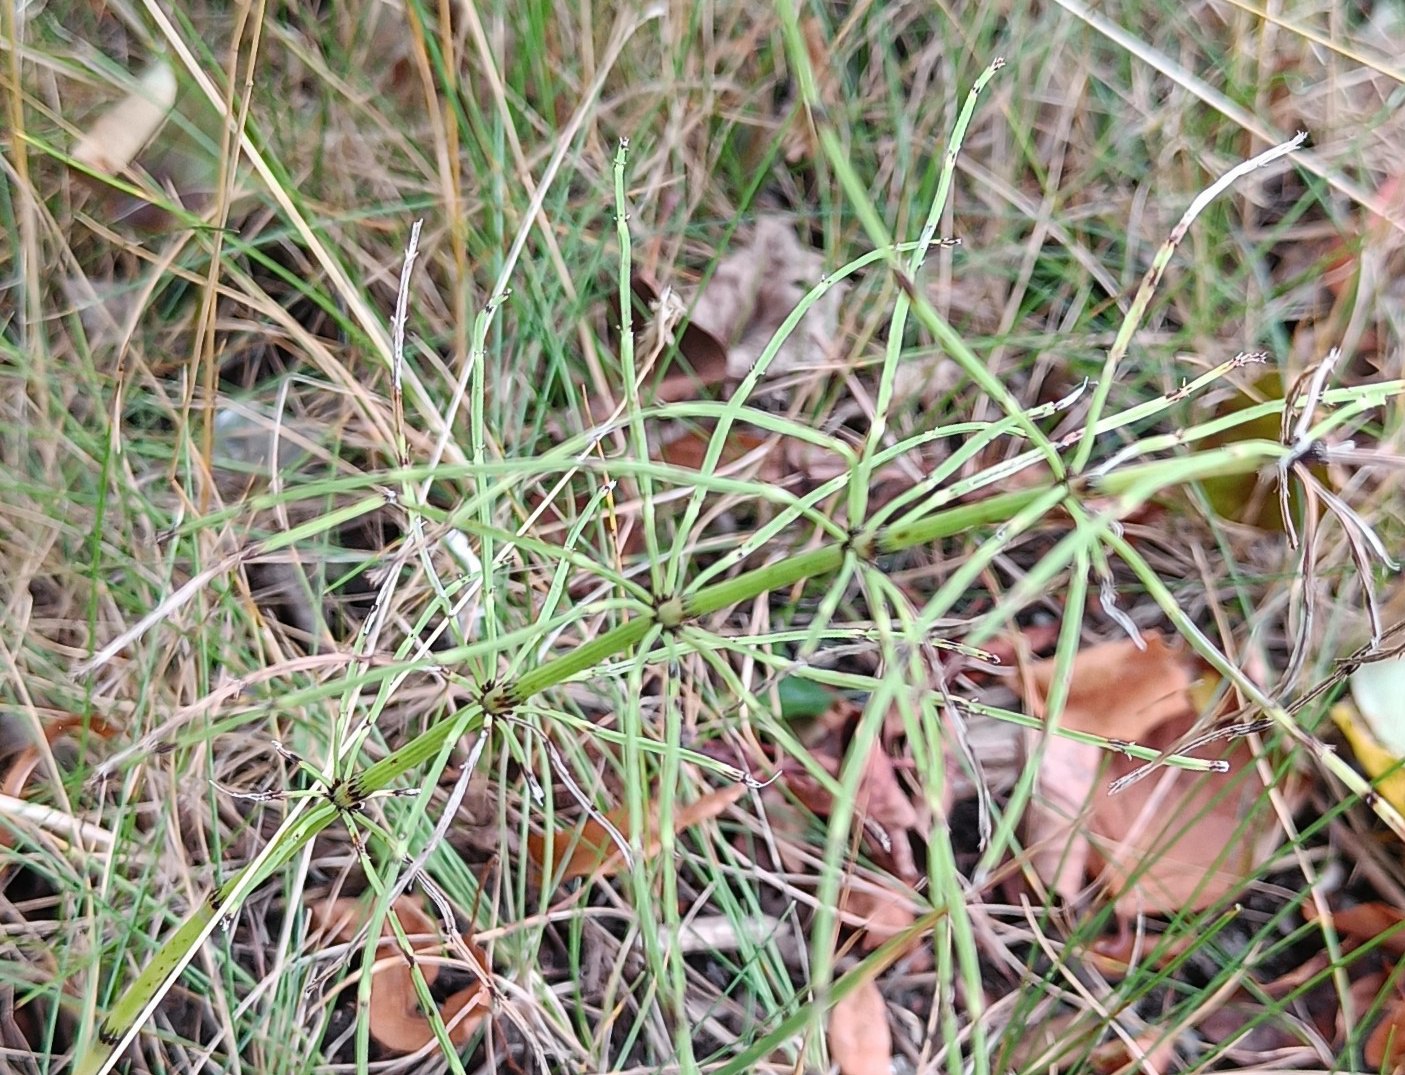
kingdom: Plantae
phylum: Tracheophyta
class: Polypodiopsida
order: Equisetales
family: Equisetaceae
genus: Equisetum
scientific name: Equisetum arvense
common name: Ager-padderok
